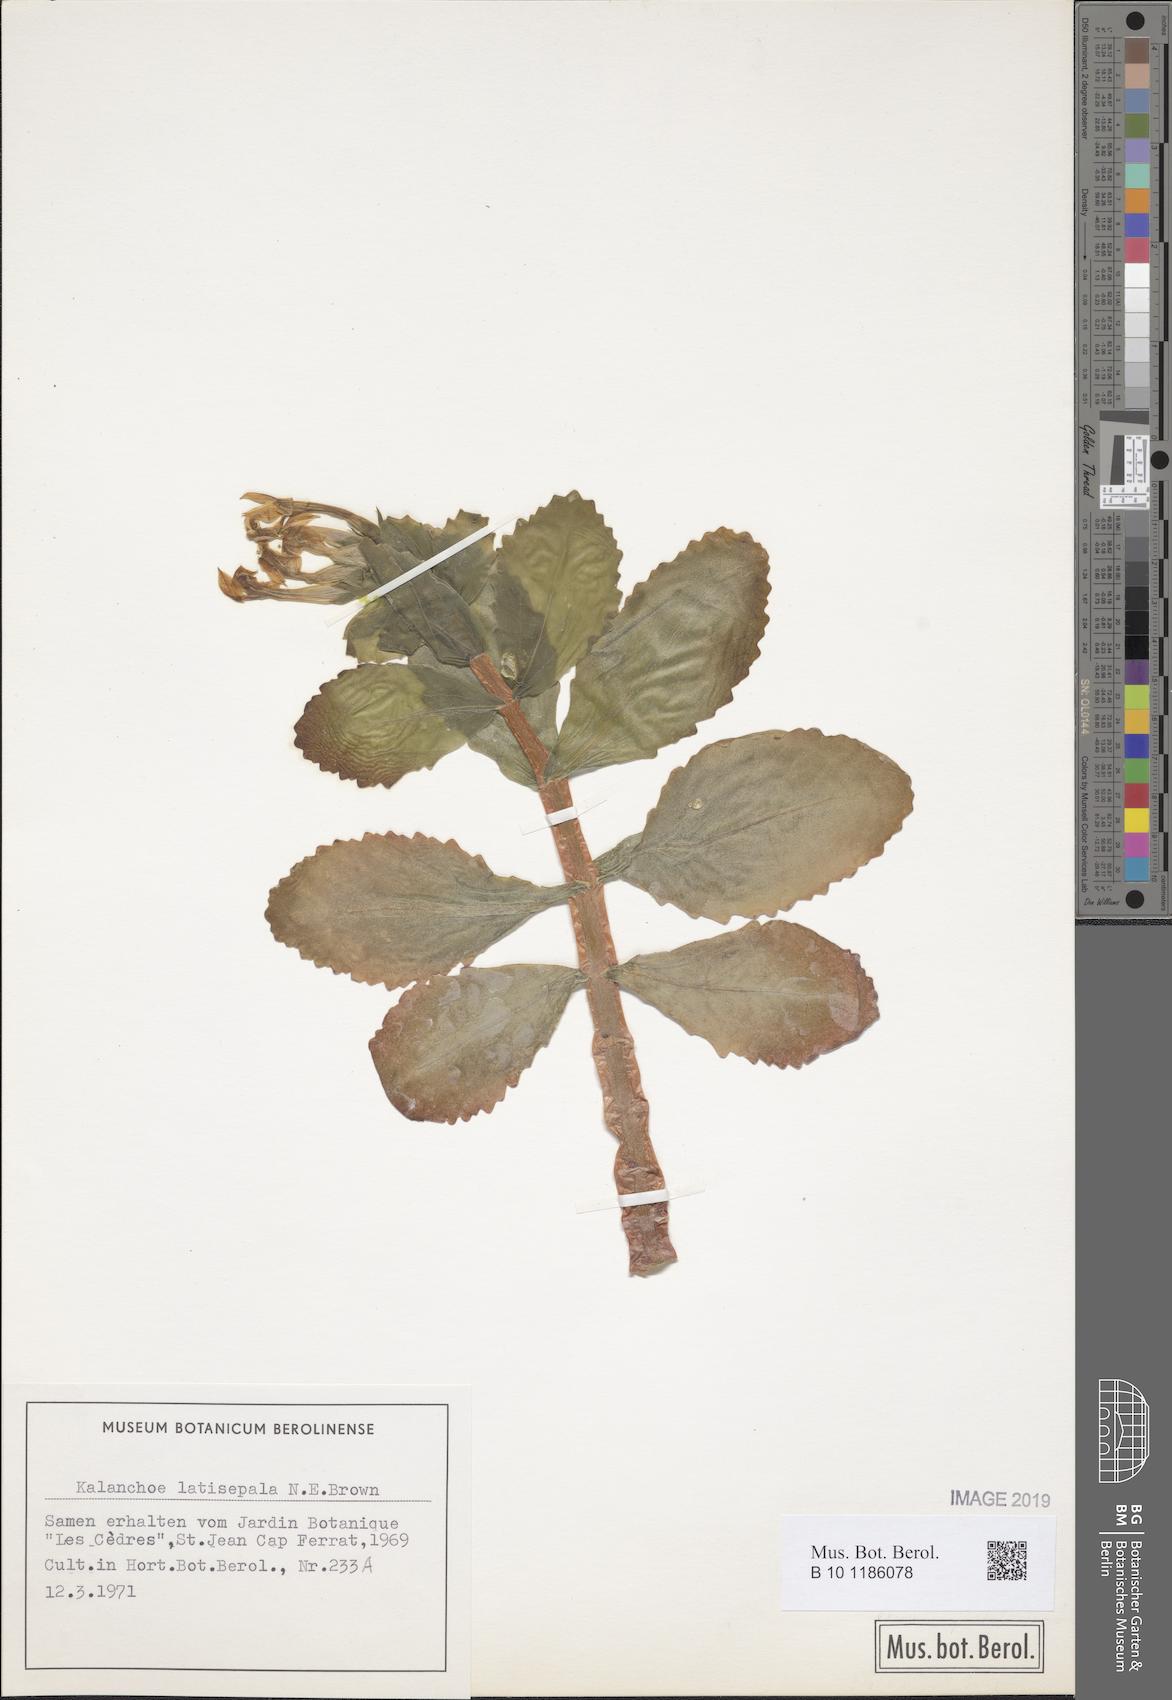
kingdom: Plantae
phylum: Tracheophyta
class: Magnoliopsida
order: Saxifragales
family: Crassulaceae
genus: Kalanchoe
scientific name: Kalanchoe latisepala
